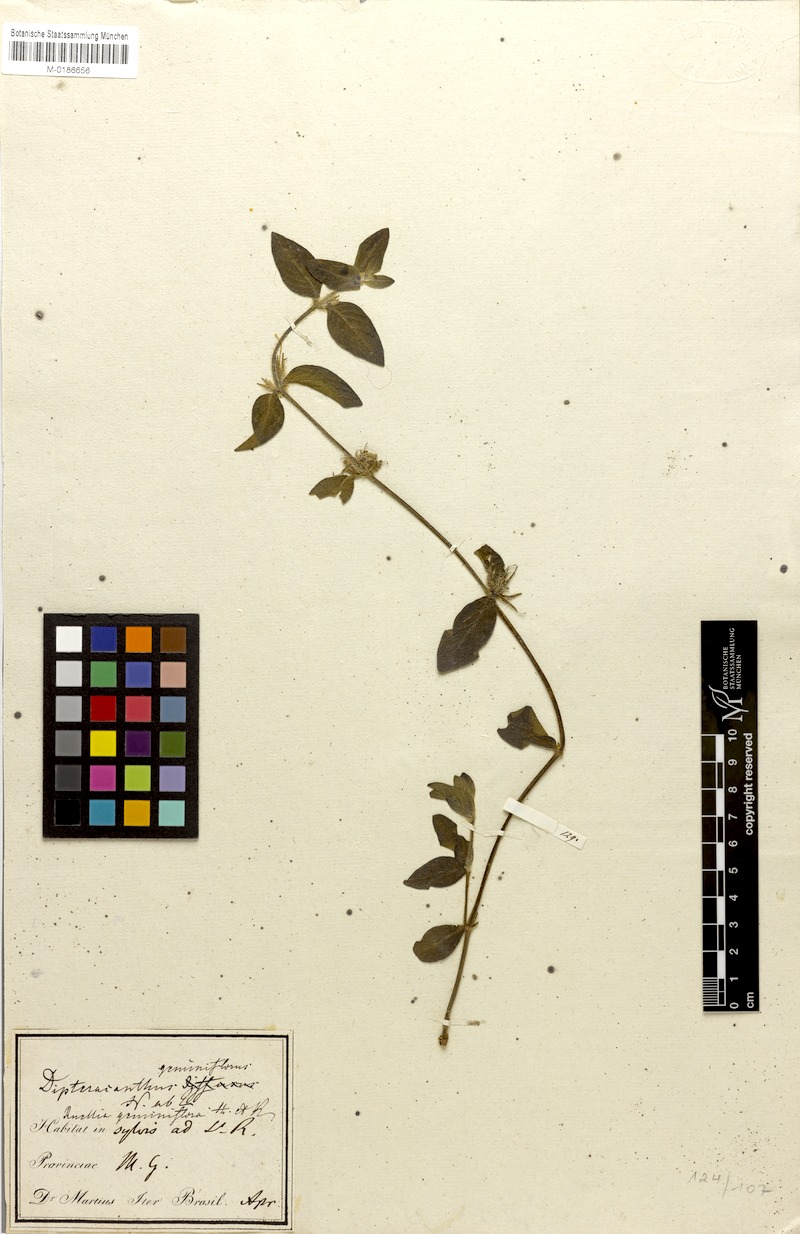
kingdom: Plantae
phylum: Tracheophyta
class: Magnoliopsida
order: Lamiales
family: Acanthaceae
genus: Ruellia
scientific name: Ruellia geminiflora
